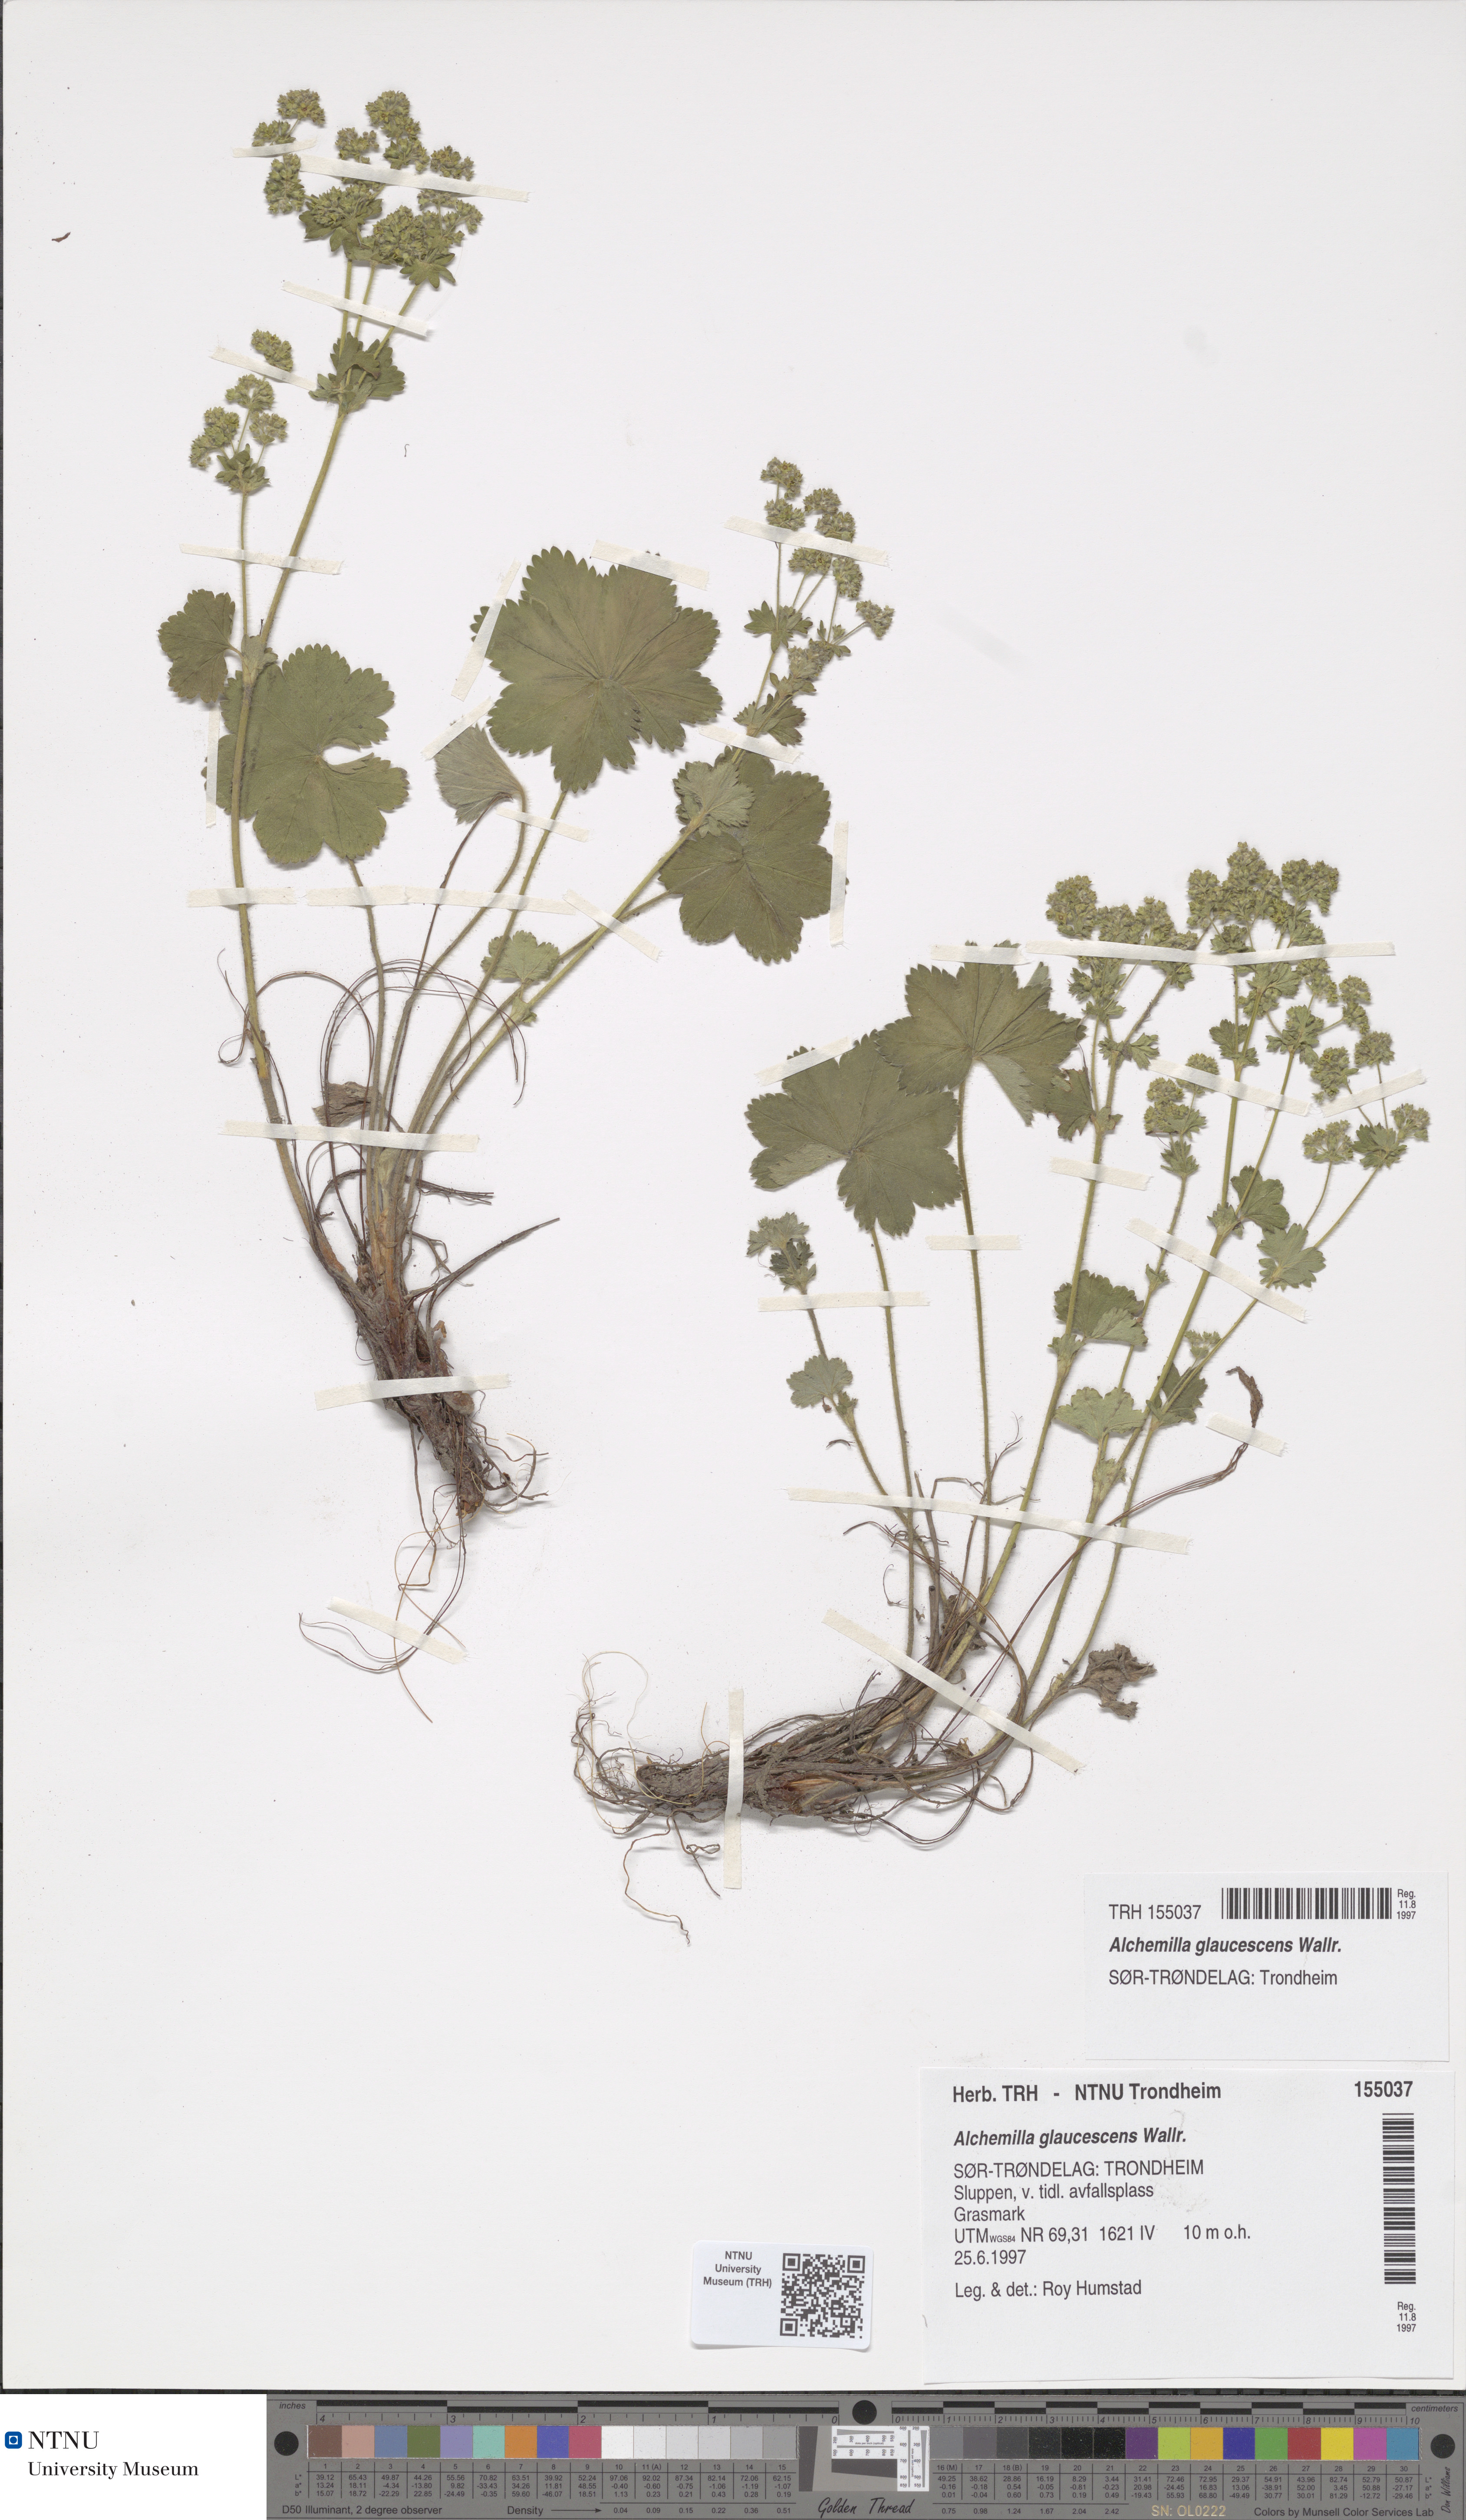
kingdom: Plantae
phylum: Tracheophyta
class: Magnoliopsida
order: Rosales
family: Rosaceae
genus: Alchemilla
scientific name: Alchemilla glaucescens
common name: Silky lady's mantle
